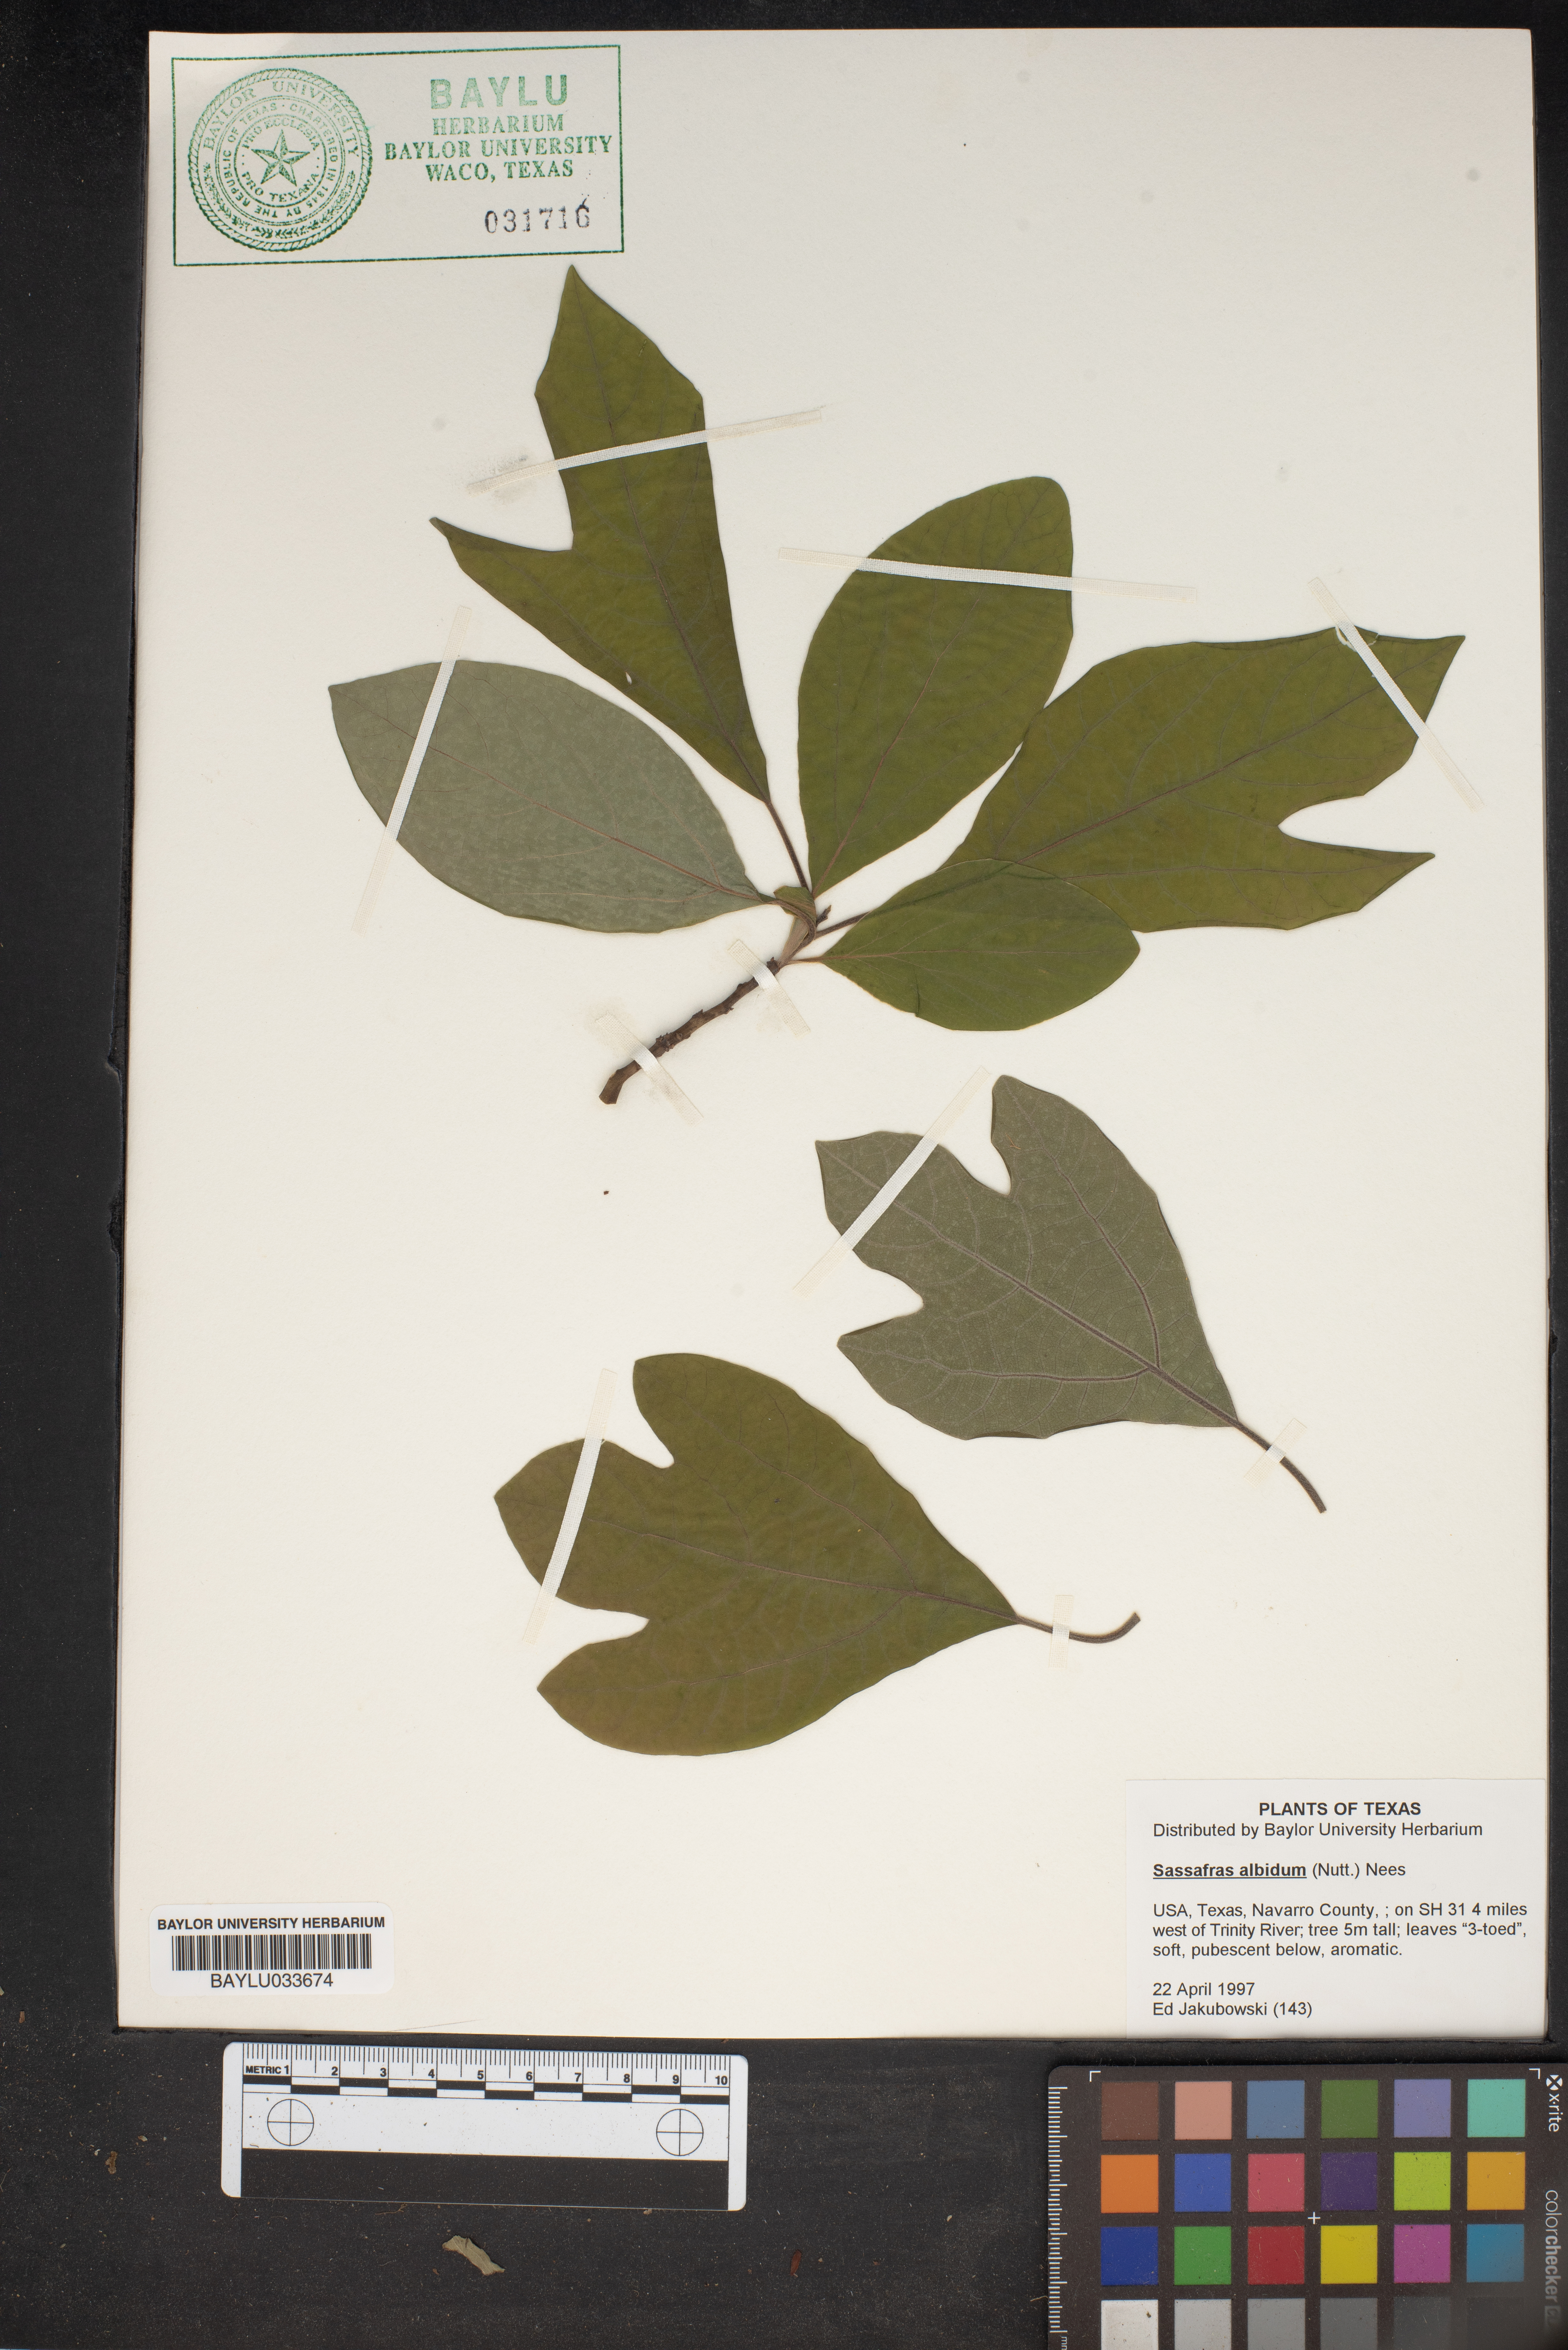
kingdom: Plantae
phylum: Tracheophyta
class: Magnoliopsida
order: Laurales
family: Lauraceae
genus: Sassafras
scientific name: Sassafras albidum
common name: Sassafras
